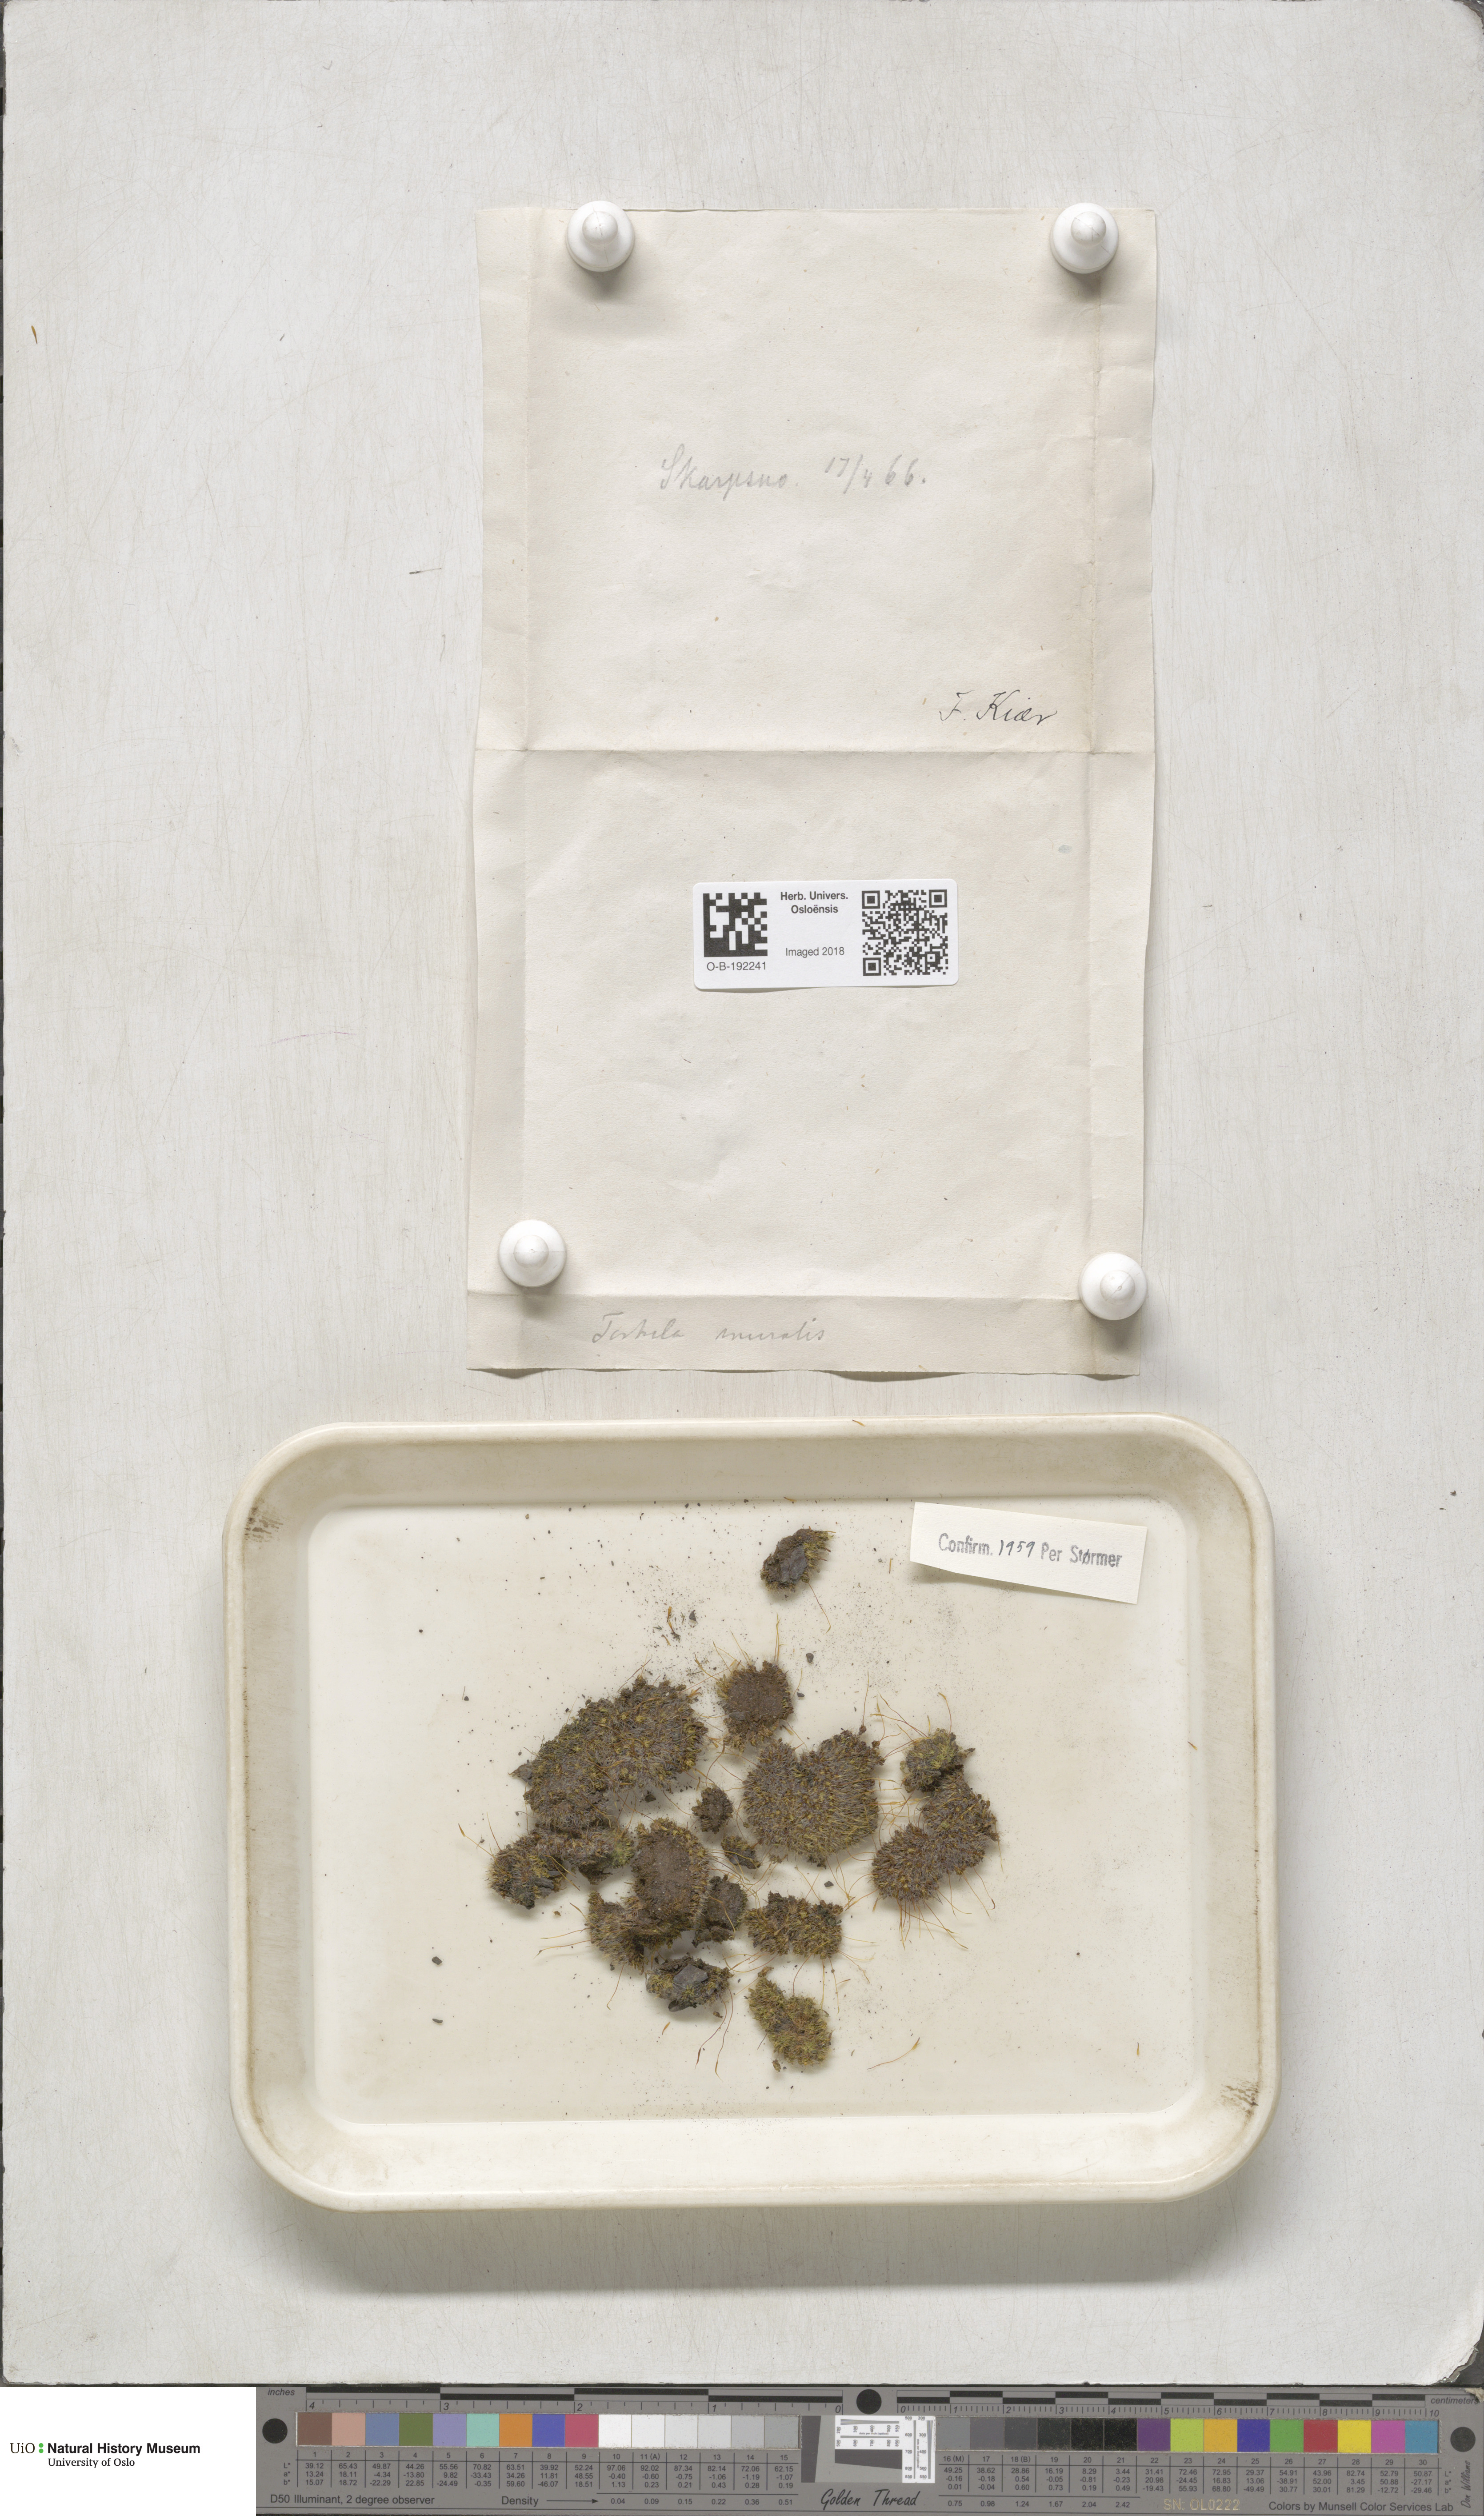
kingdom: Plantae
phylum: Bryophyta
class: Bryopsida
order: Pottiales
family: Pottiaceae
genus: Tortula
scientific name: Tortula muralis
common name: Wall screw-moss
